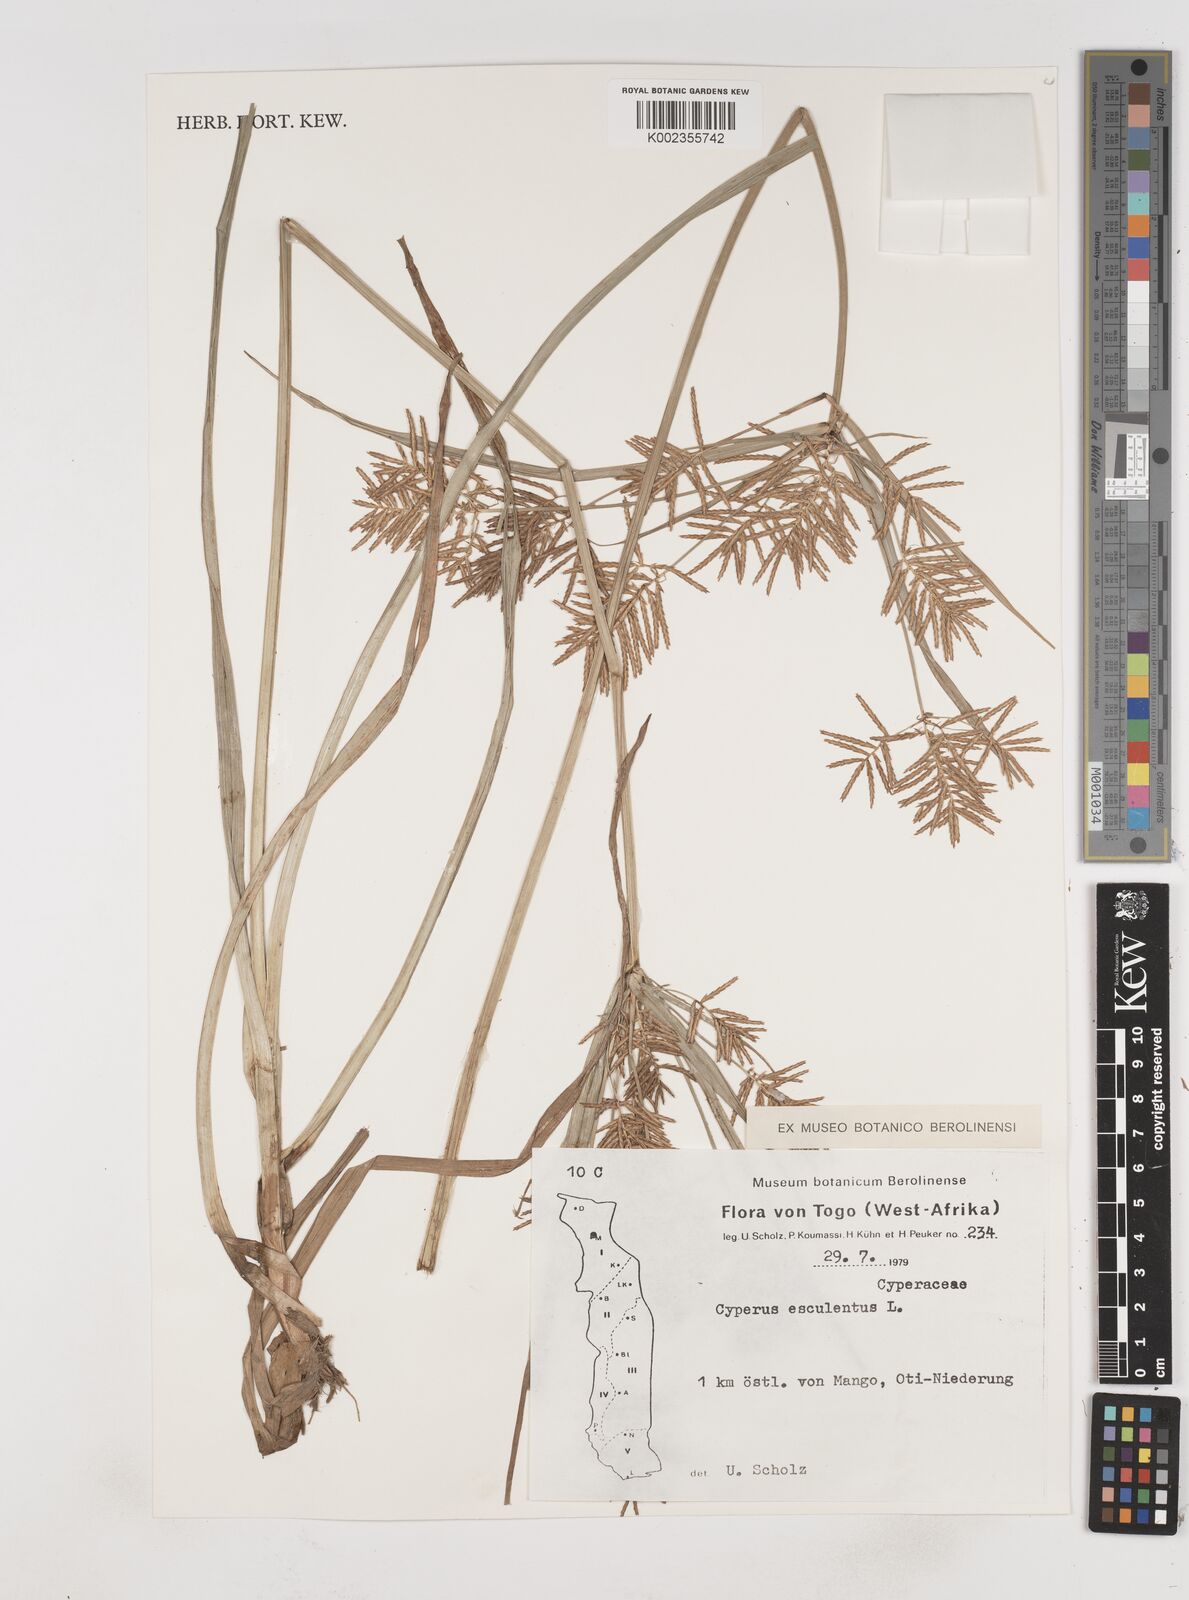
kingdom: Plantae
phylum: Tracheophyta
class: Liliopsida
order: Poales
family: Cyperaceae
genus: Cyperus
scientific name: Cyperus esculentus
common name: Yellow nutsedge
